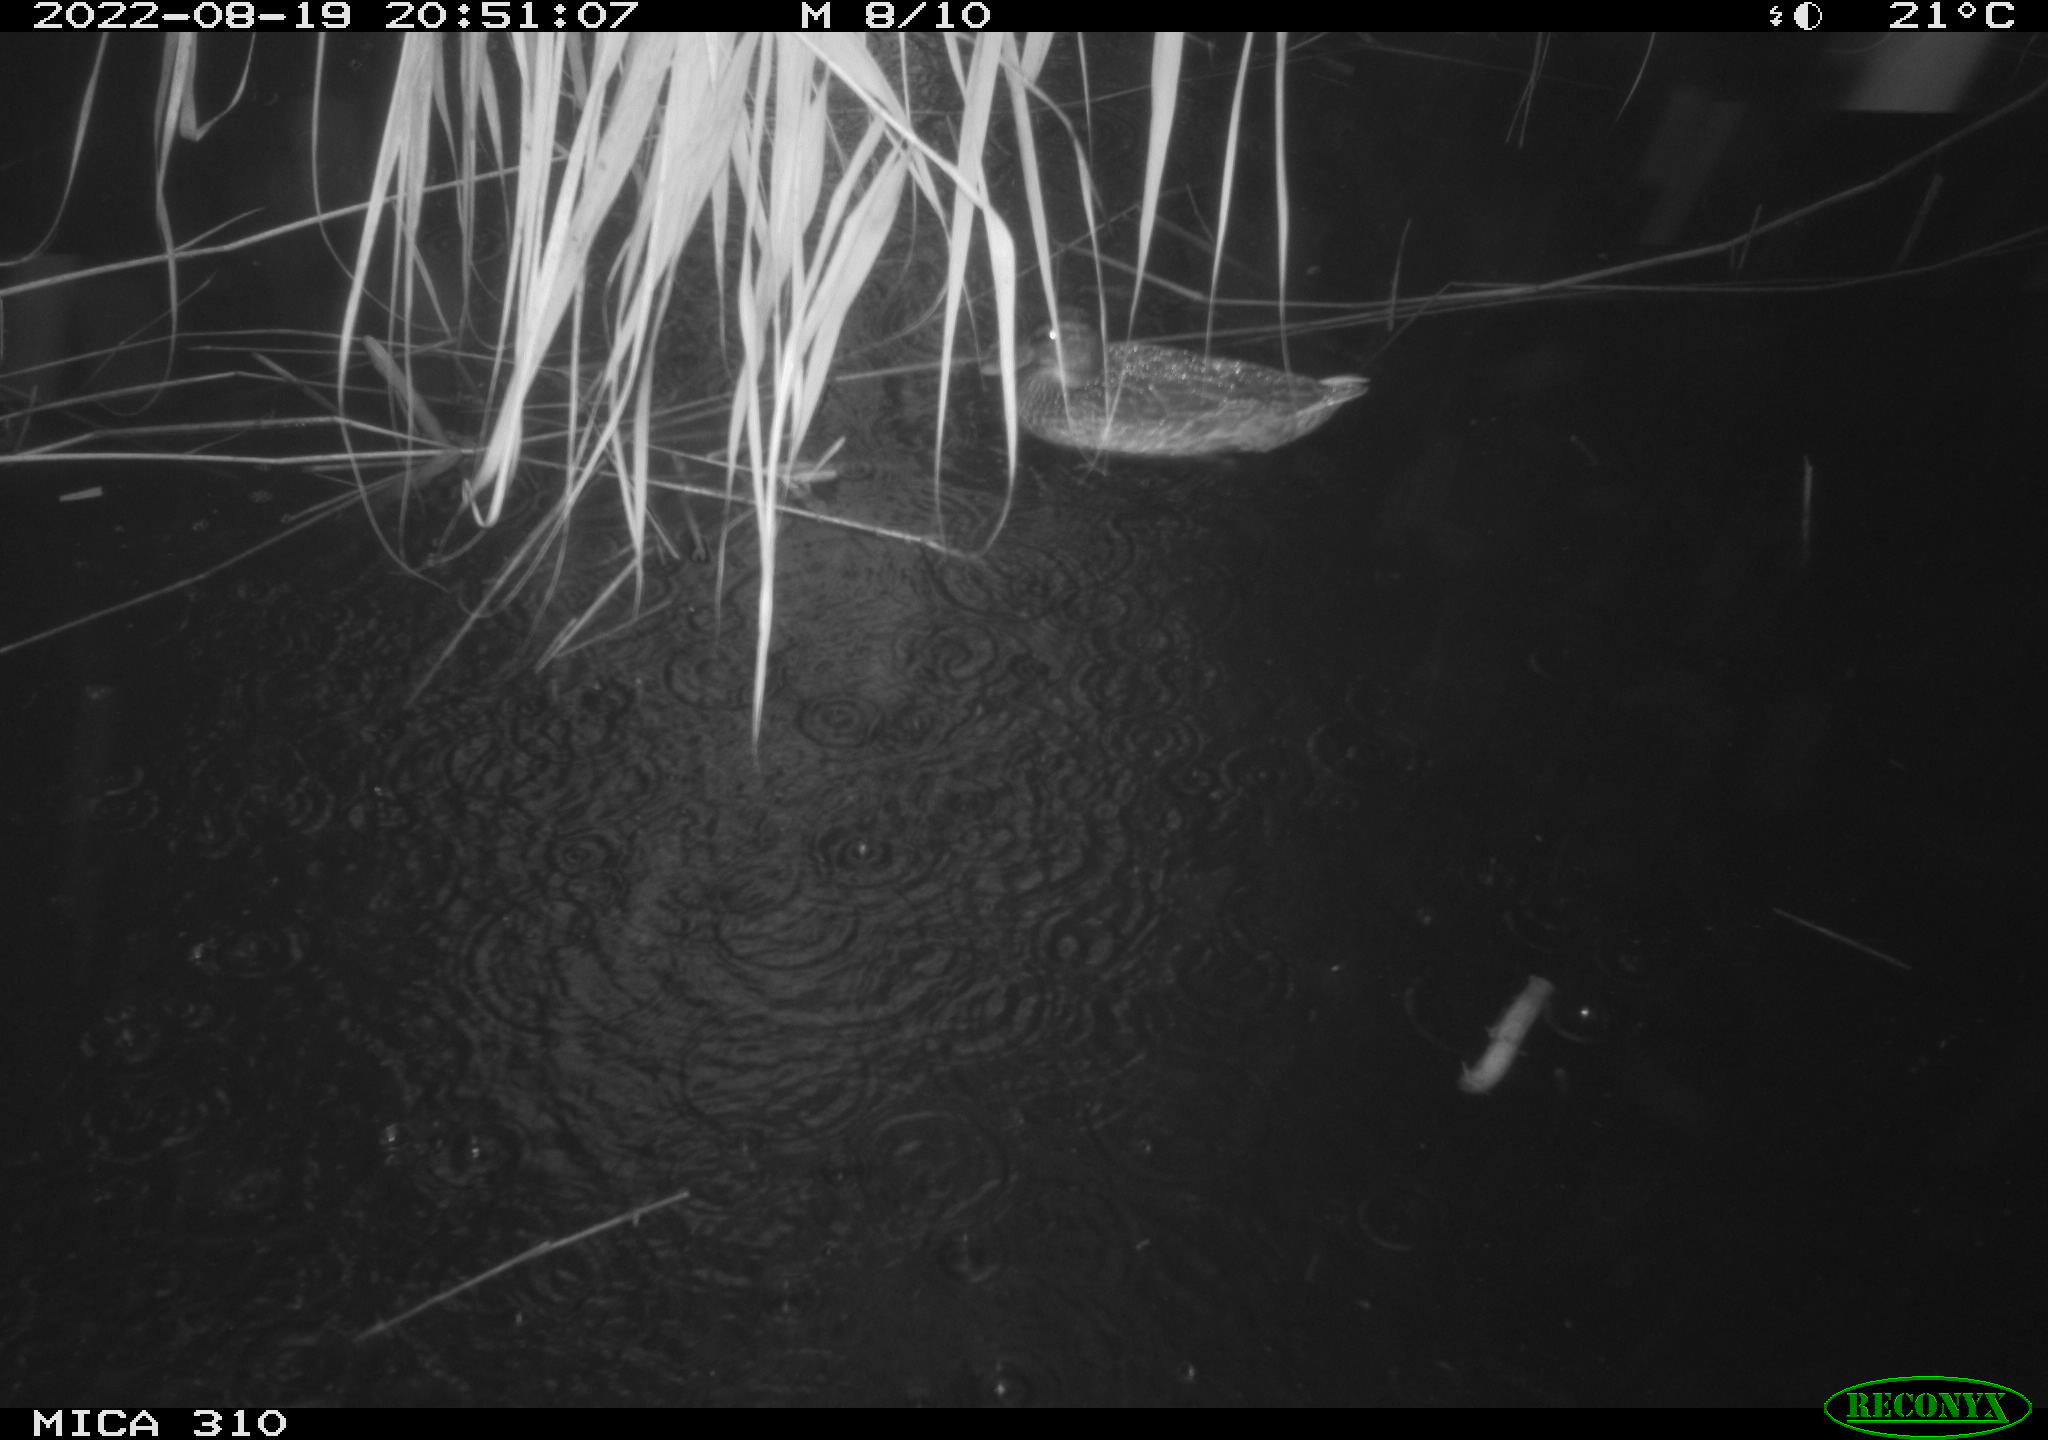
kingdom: Animalia
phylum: Chordata
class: Aves
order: Anseriformes
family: Anatidae
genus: Anas
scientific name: Anas platyrhynchos
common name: Mallard
